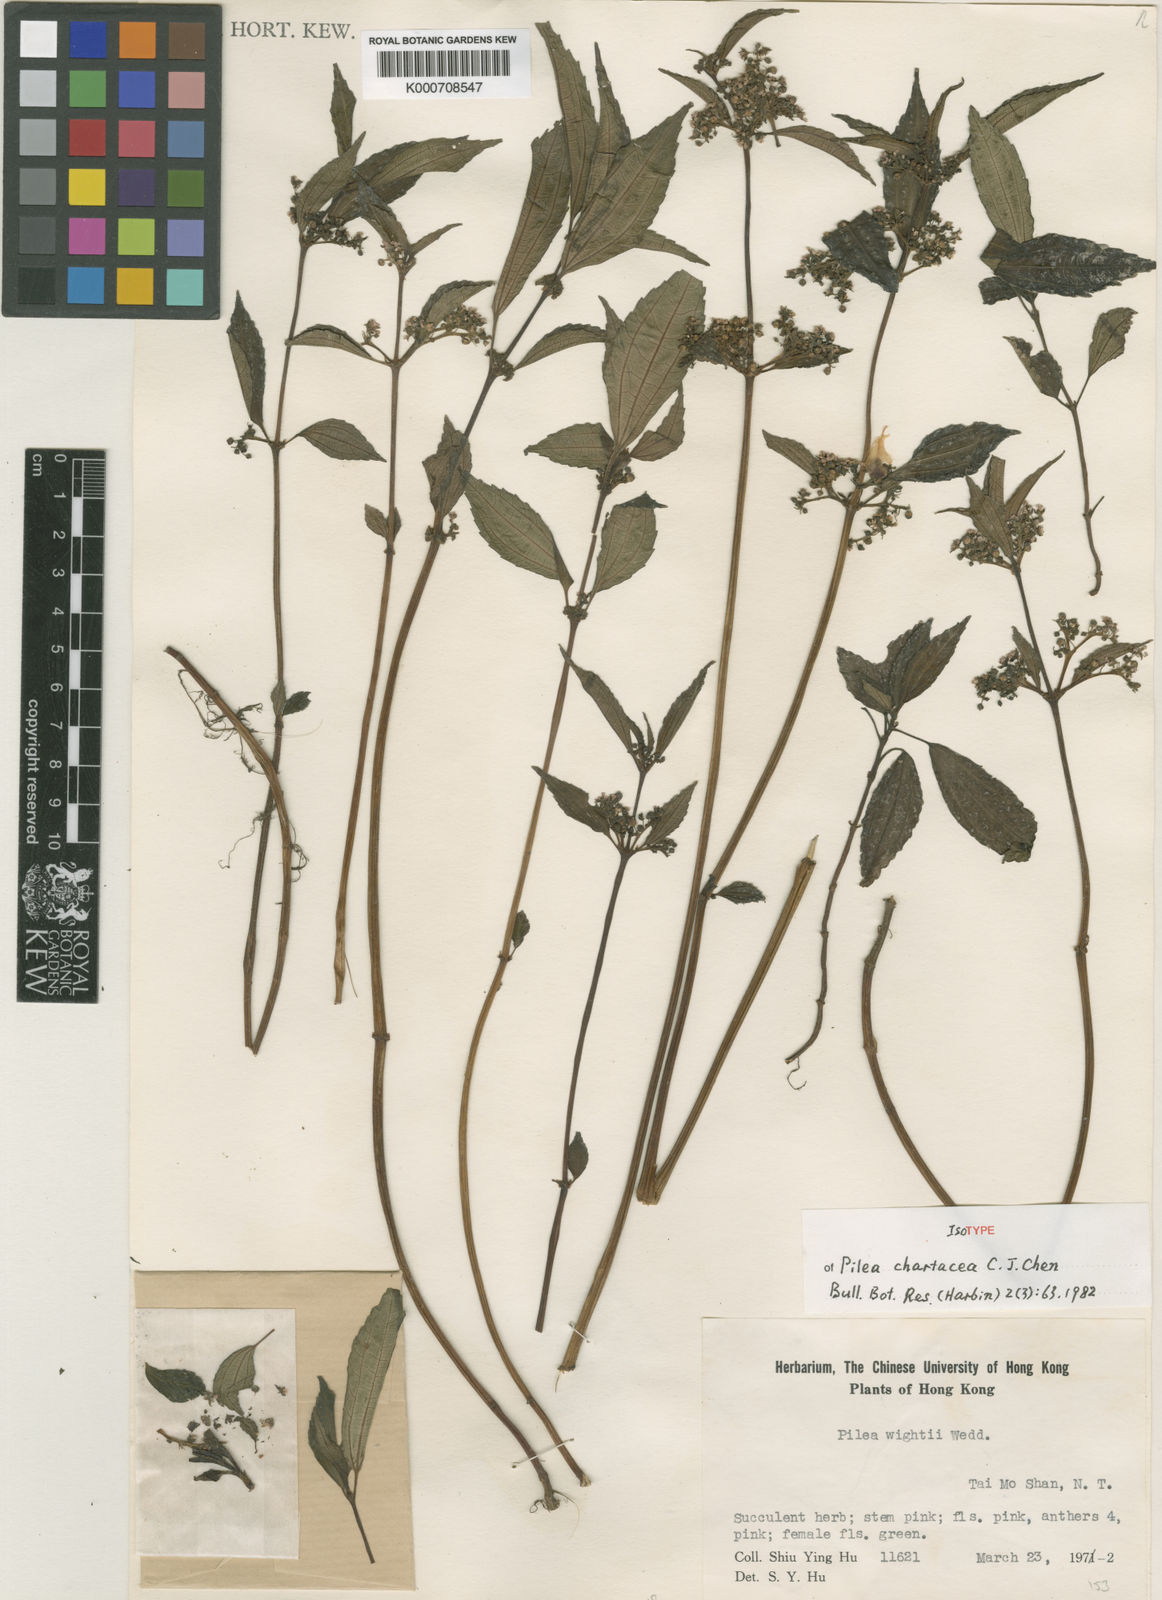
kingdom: Plantae
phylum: Tracheophyta
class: Magnoliopsida
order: Rosales
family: Urticaceae
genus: Pilea
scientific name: Pilea chartacea
